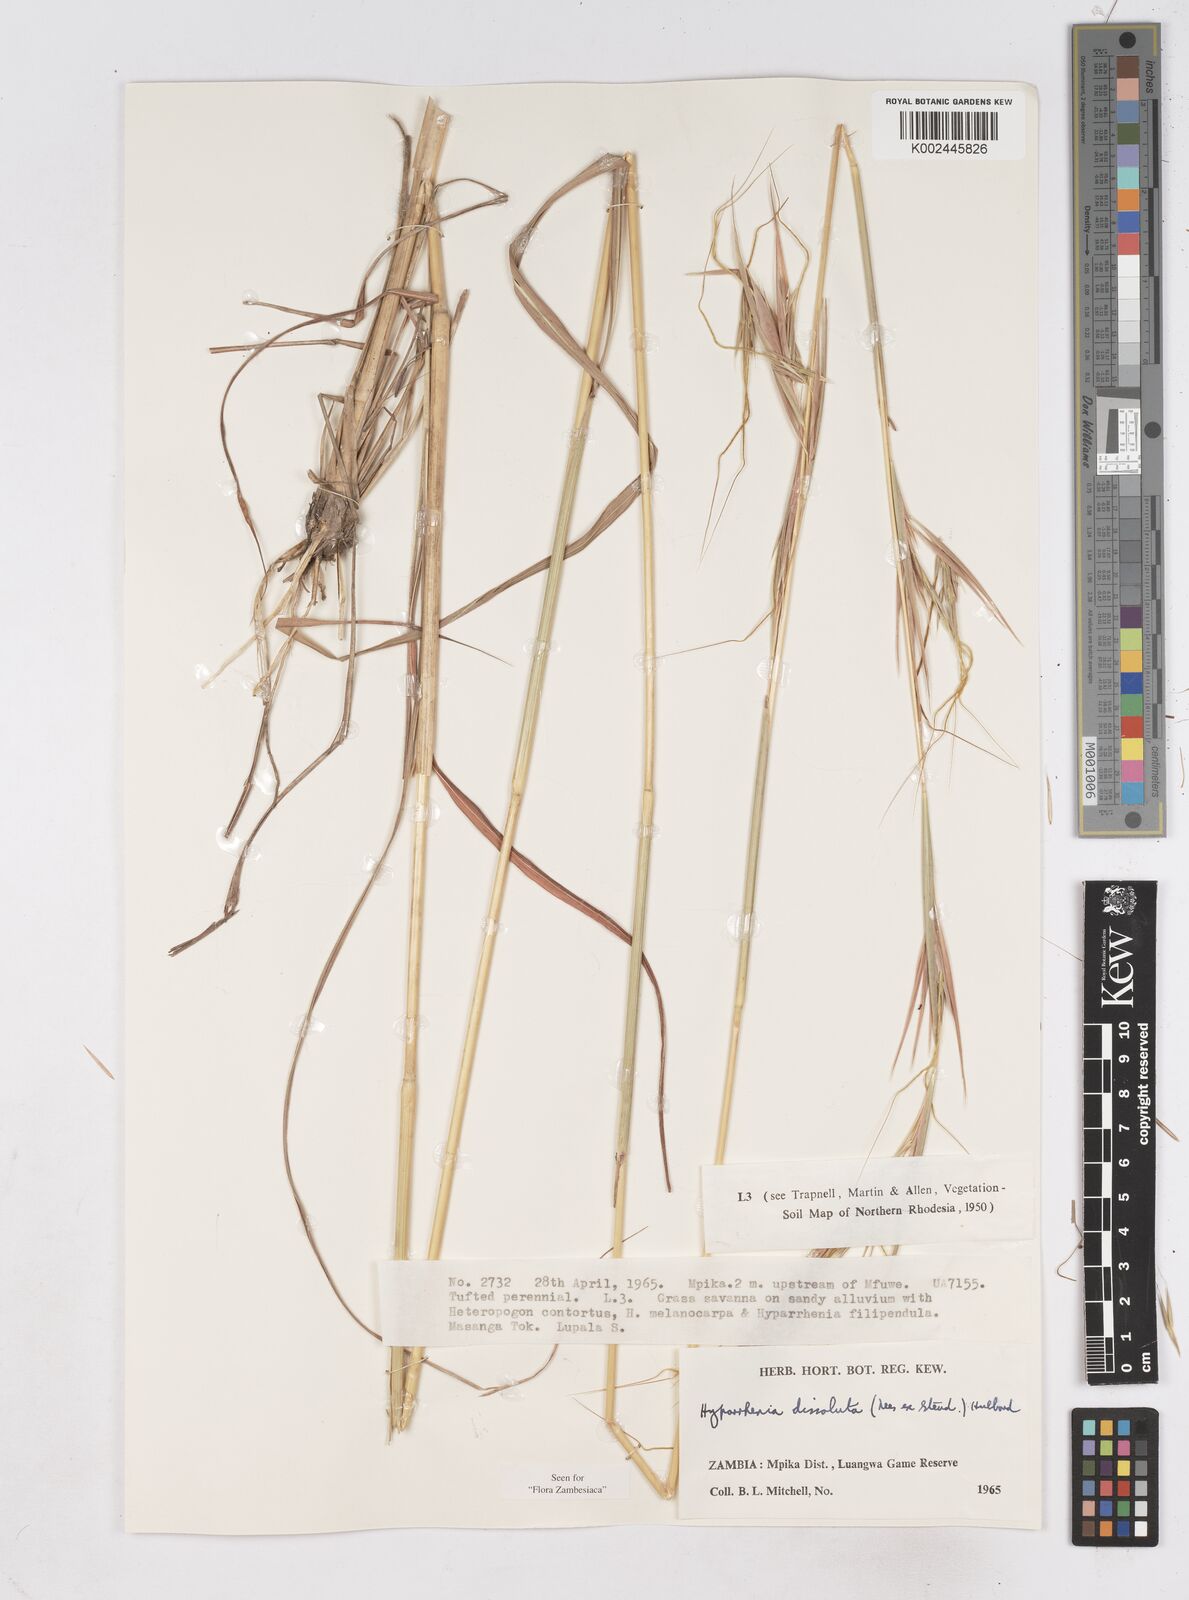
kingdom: Plantae
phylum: Tracheophyta
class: Liliopsida
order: Poales
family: Poaceae
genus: Hyperthelia
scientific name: Hyperthelia dissoluta
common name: Yellow thatching grass
